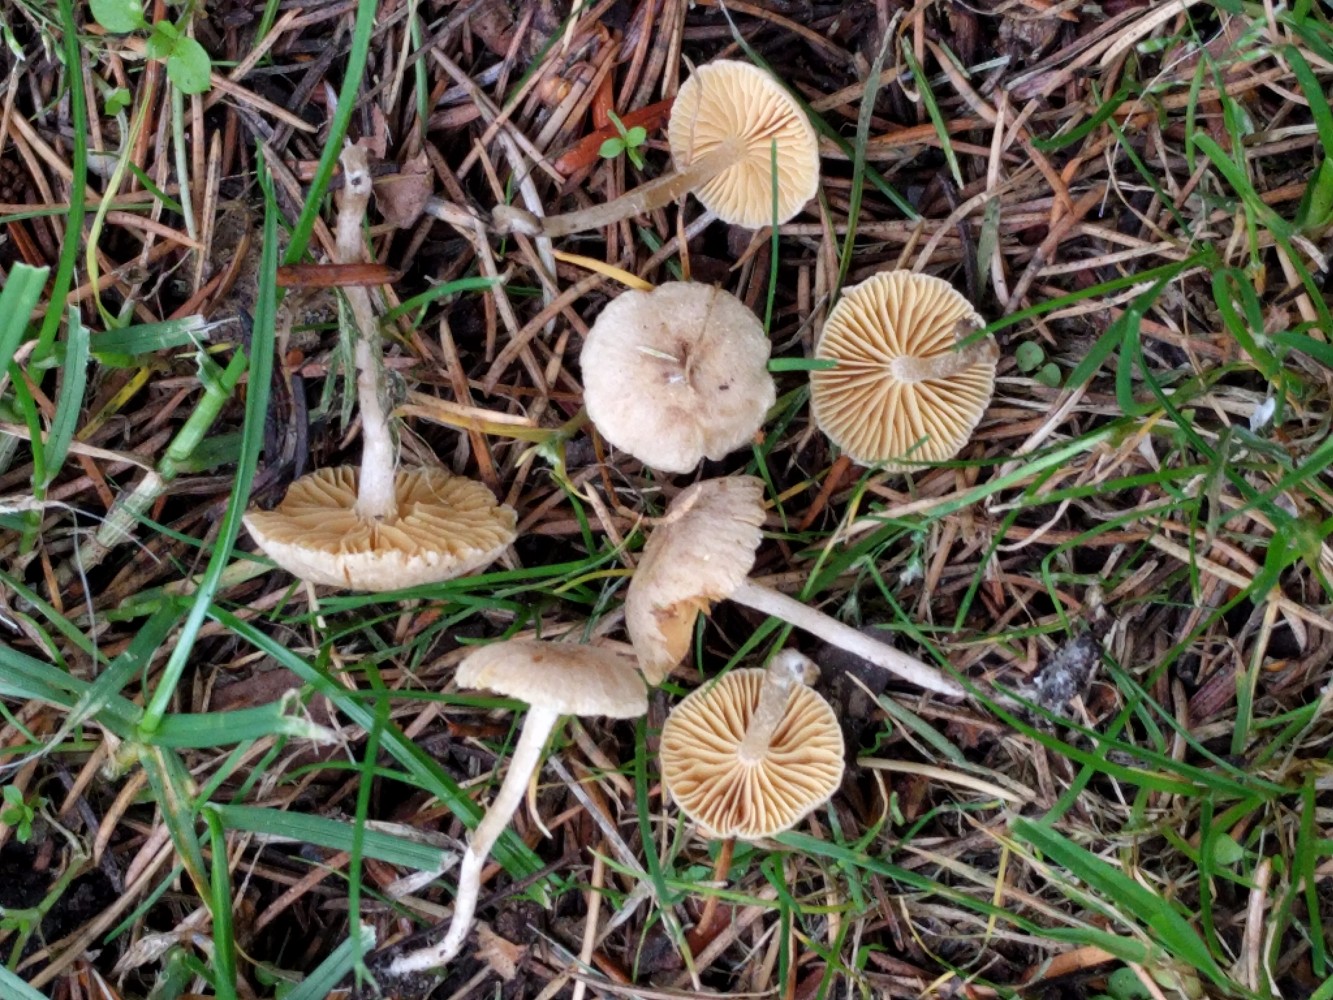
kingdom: Fungi
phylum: Basidiomycota
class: Agaricomycetes
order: Agaricales
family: Tubariaceae
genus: Tubaria
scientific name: Tubaria dispersa
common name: tjørne-fnughat
